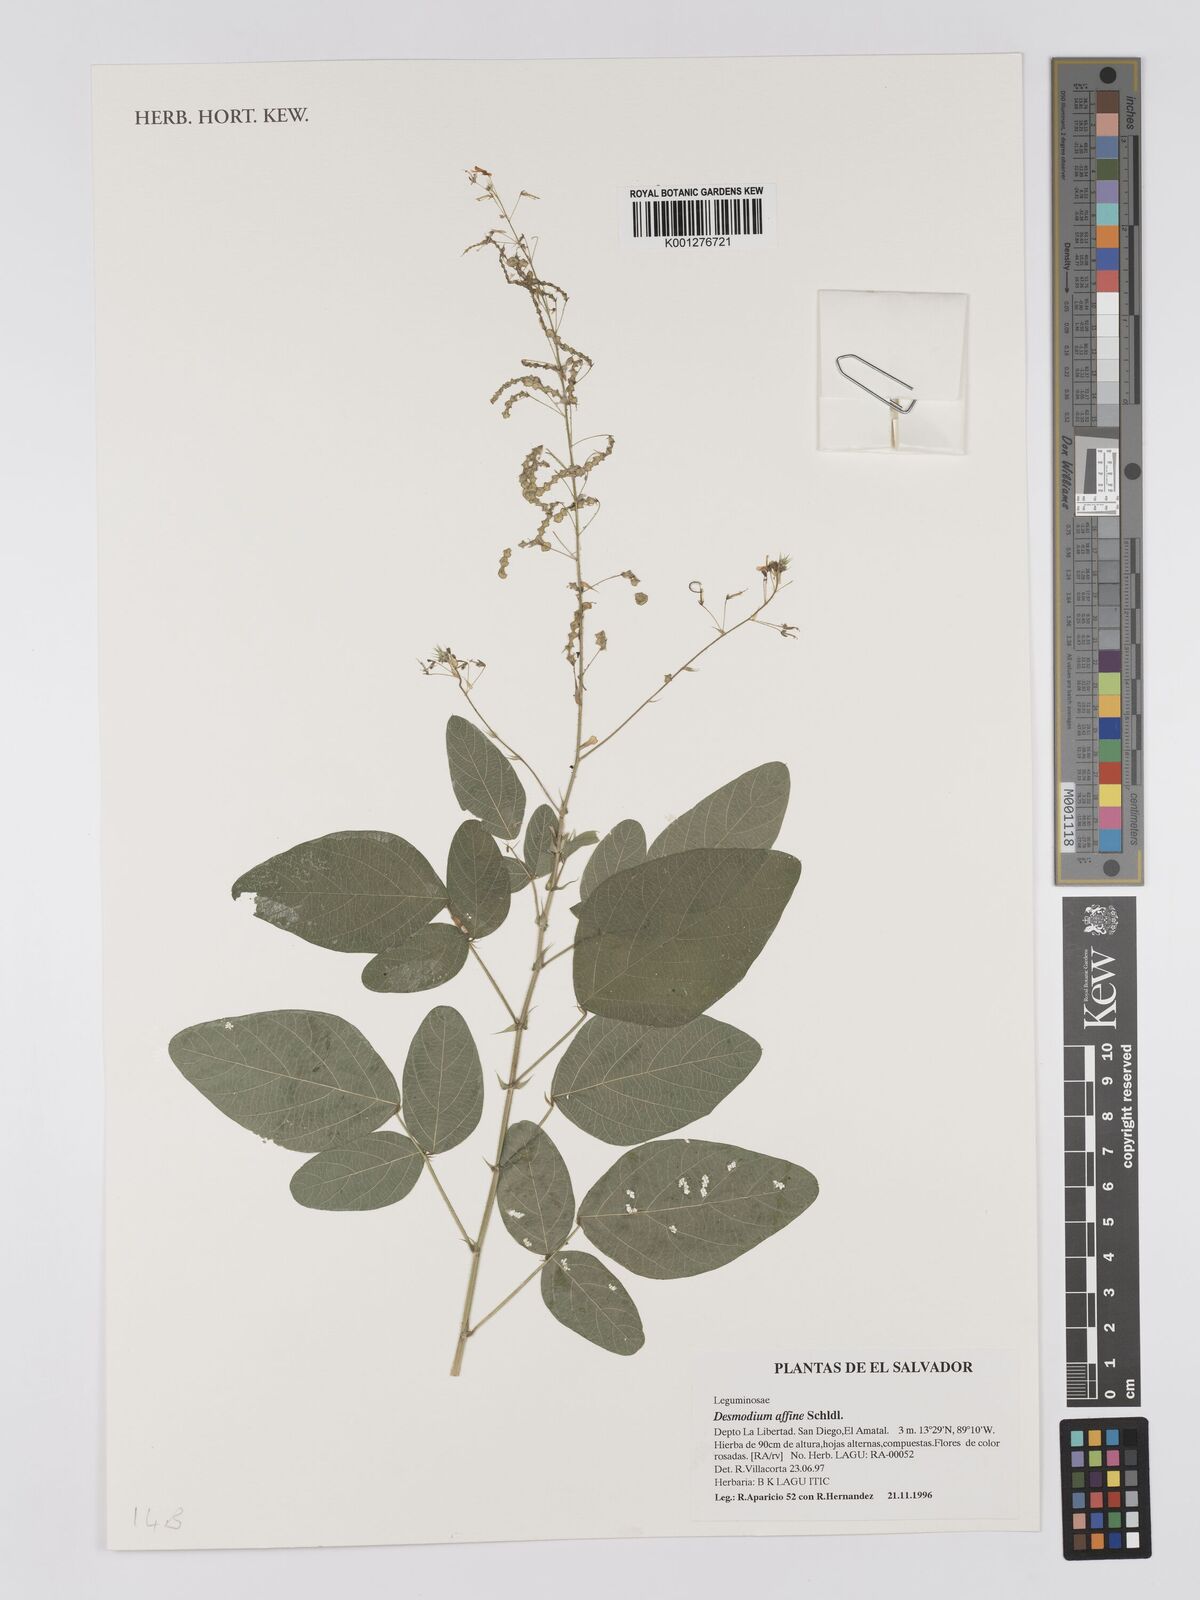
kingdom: Plantae
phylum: Tracheophyta
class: Magnoliopsida
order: Fabales
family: Fabaceae
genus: Desmodium
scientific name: Desmodium affine
